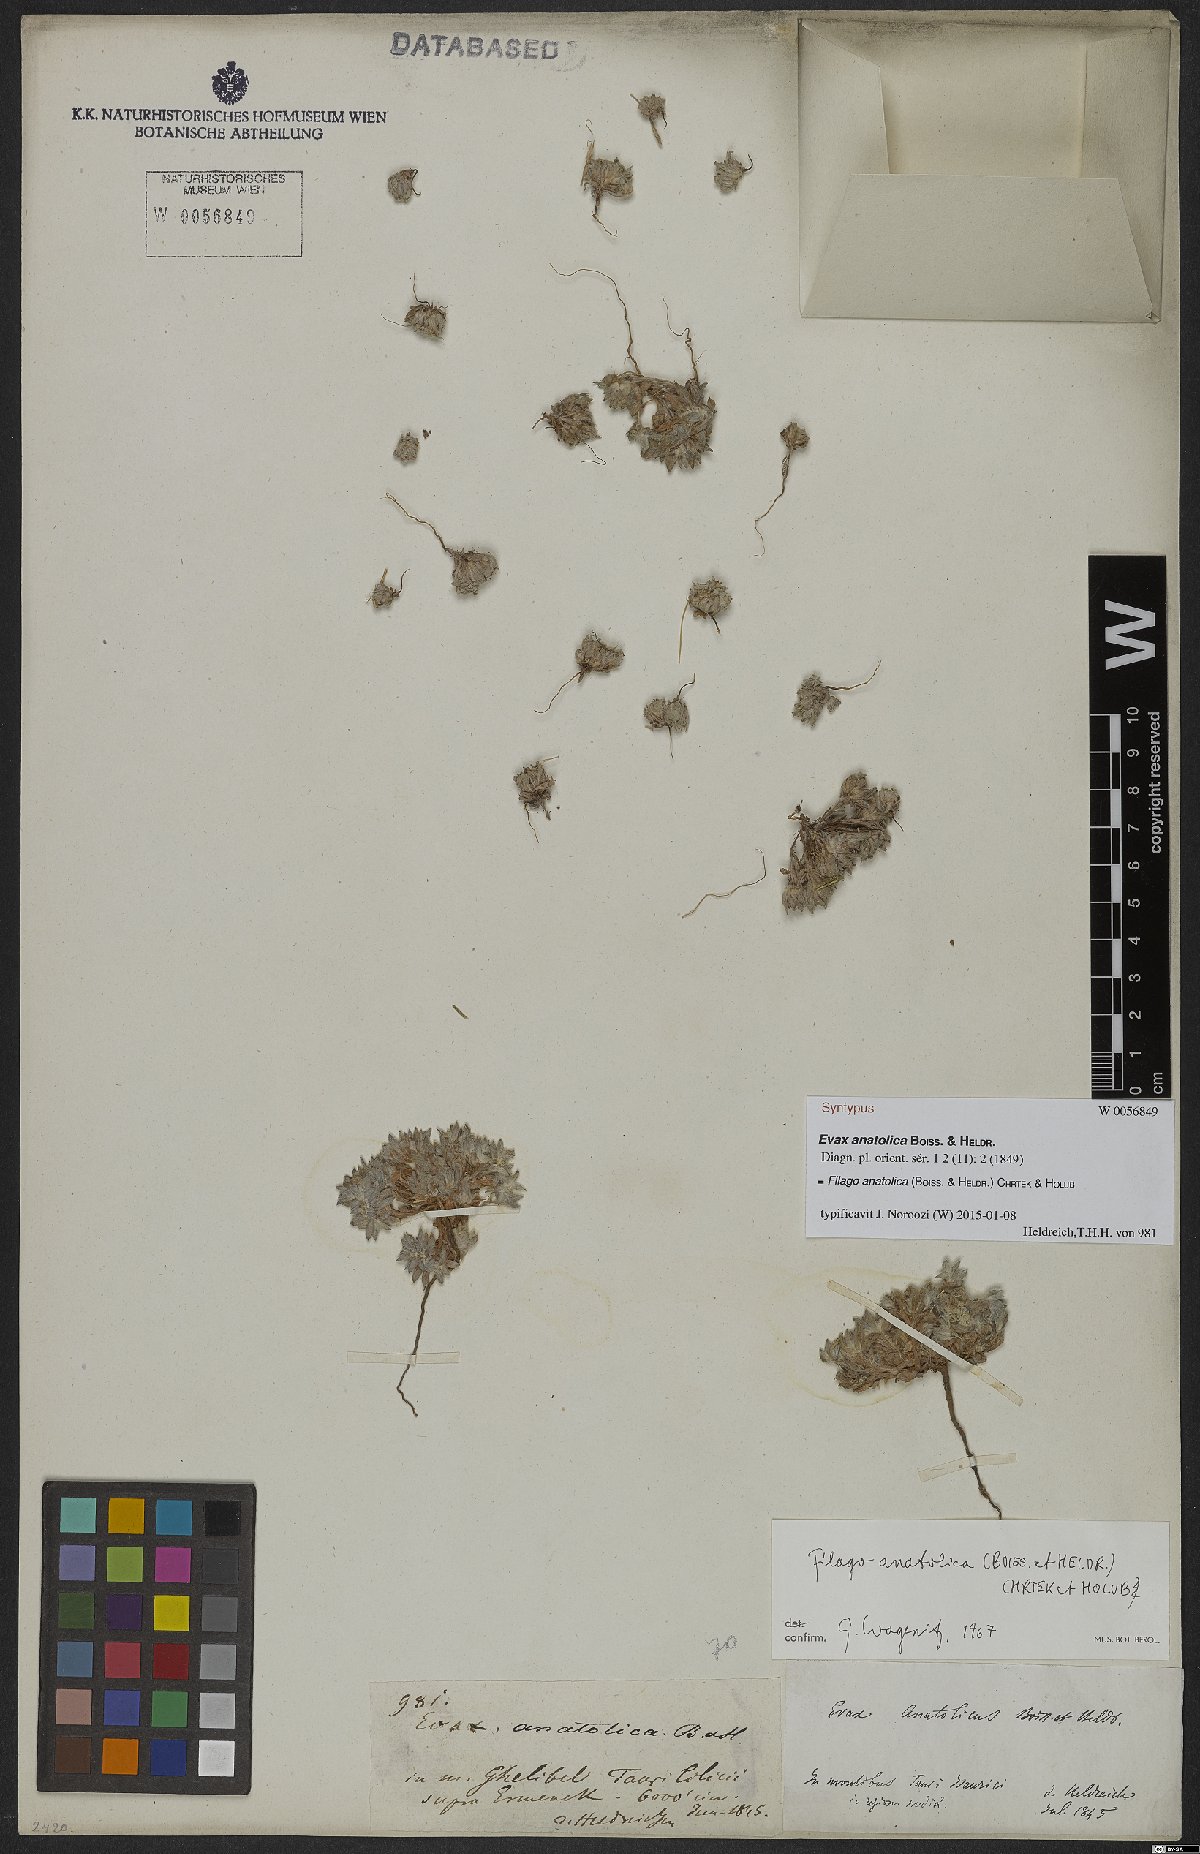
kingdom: Plantae
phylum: Tracheophyta
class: Magnoliopsida
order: Asterales
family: Asteraceae
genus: Filago
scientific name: Filago anatolica
